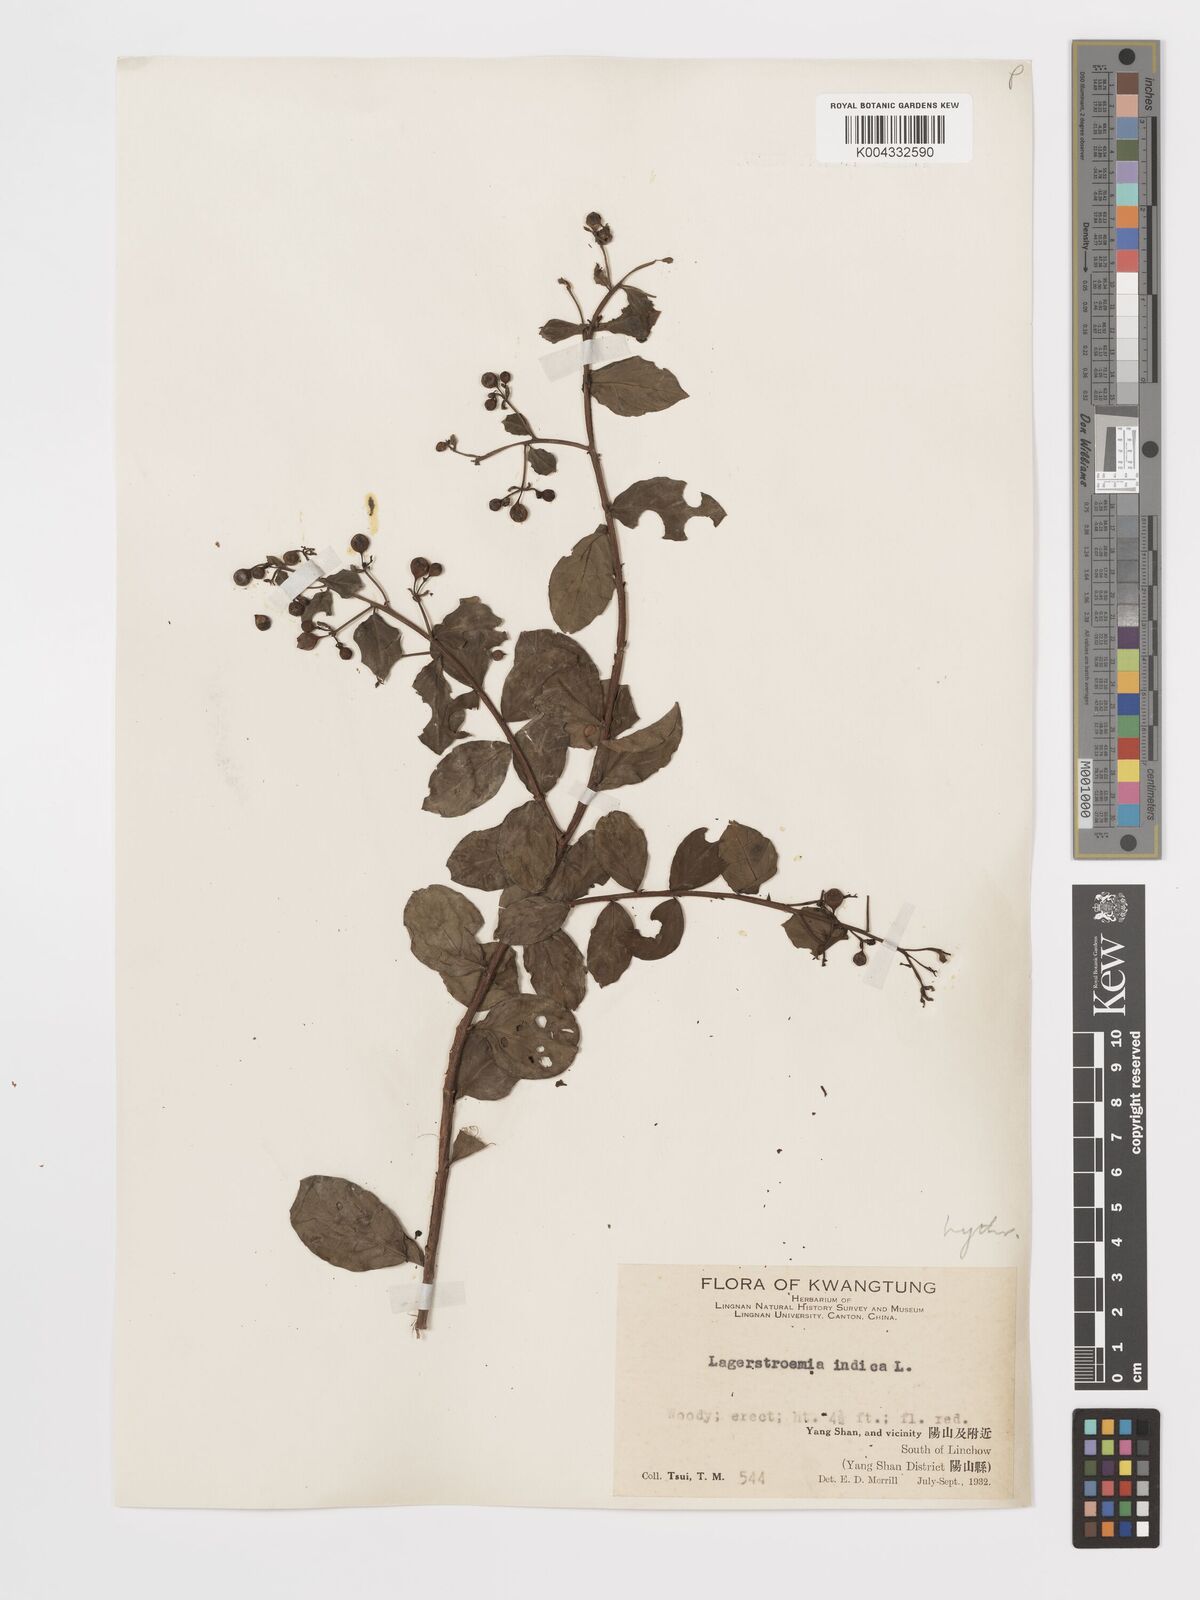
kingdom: Plantae
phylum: Tracheophyta
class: Magnoliopsida
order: Myrtales
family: Lythraceae
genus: Lagerstroemia
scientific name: Lagerstroemia indica
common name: Crape-myrtle
